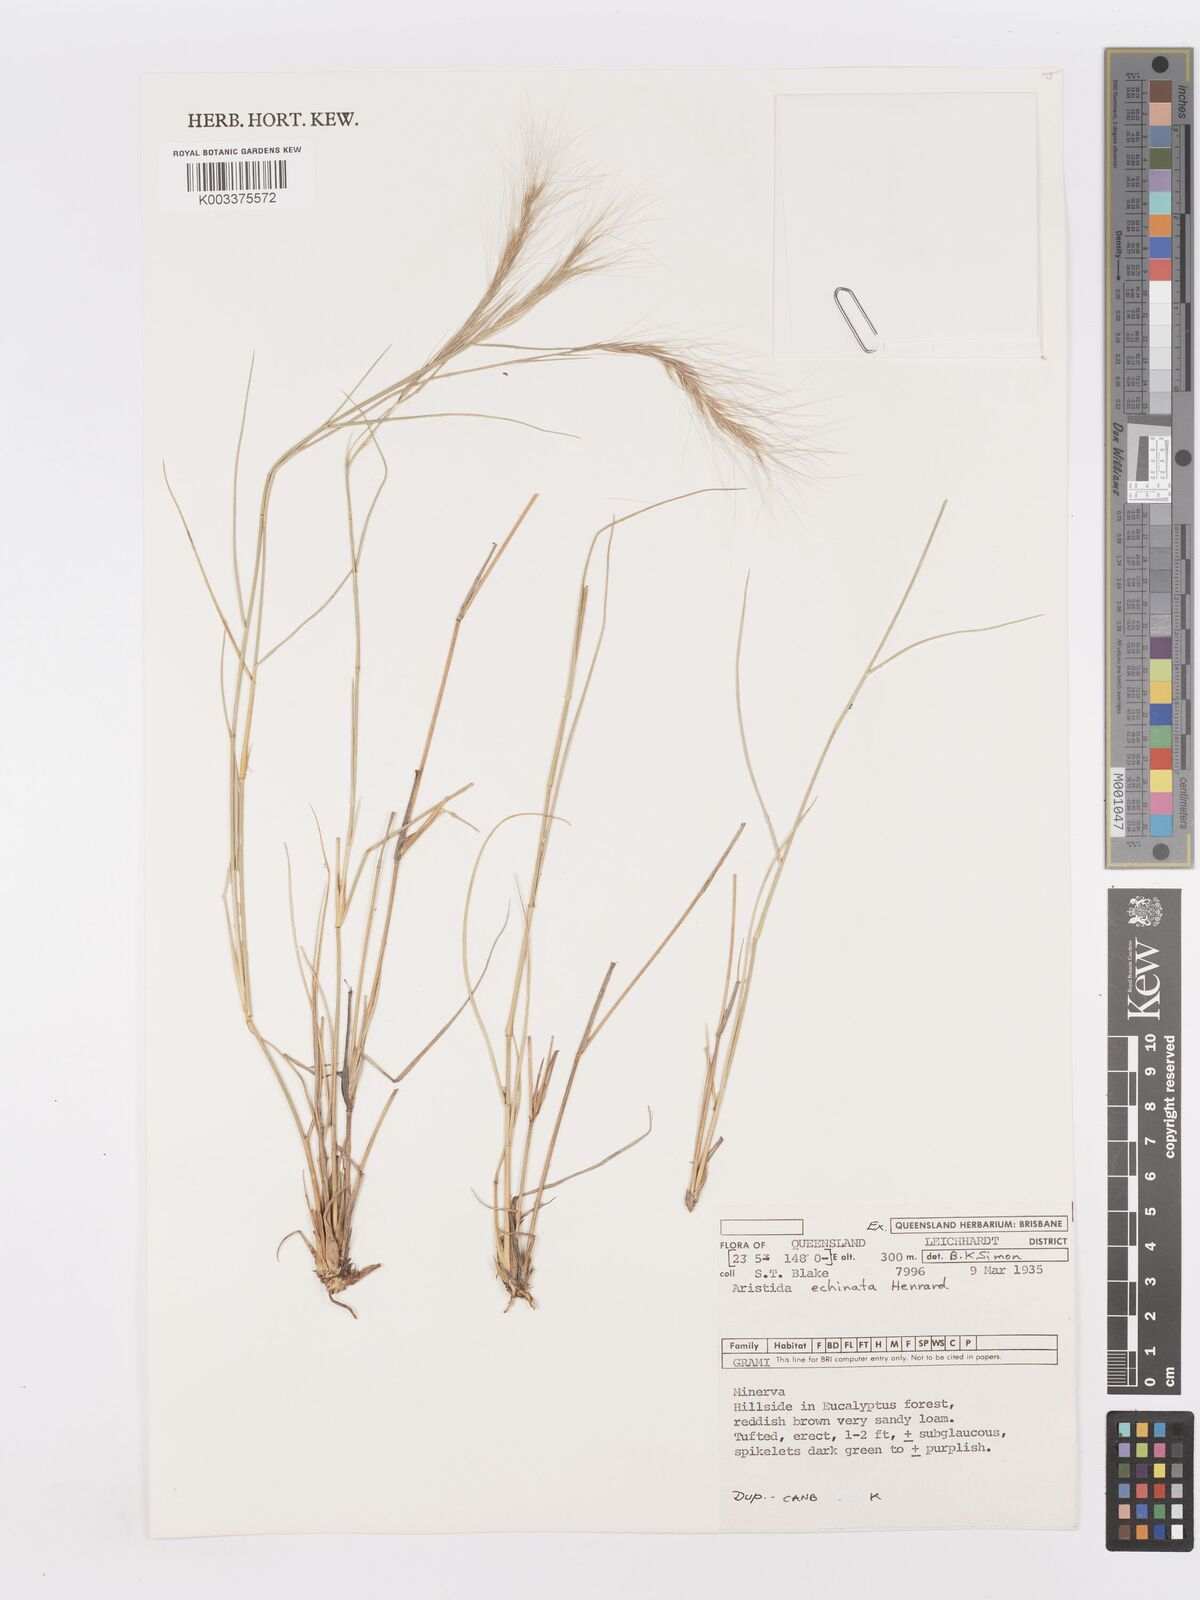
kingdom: Plantae
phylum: Tracheophyta
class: Liliopsida
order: Poales
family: Poaceae
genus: Aristida
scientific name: Aristida echinata
